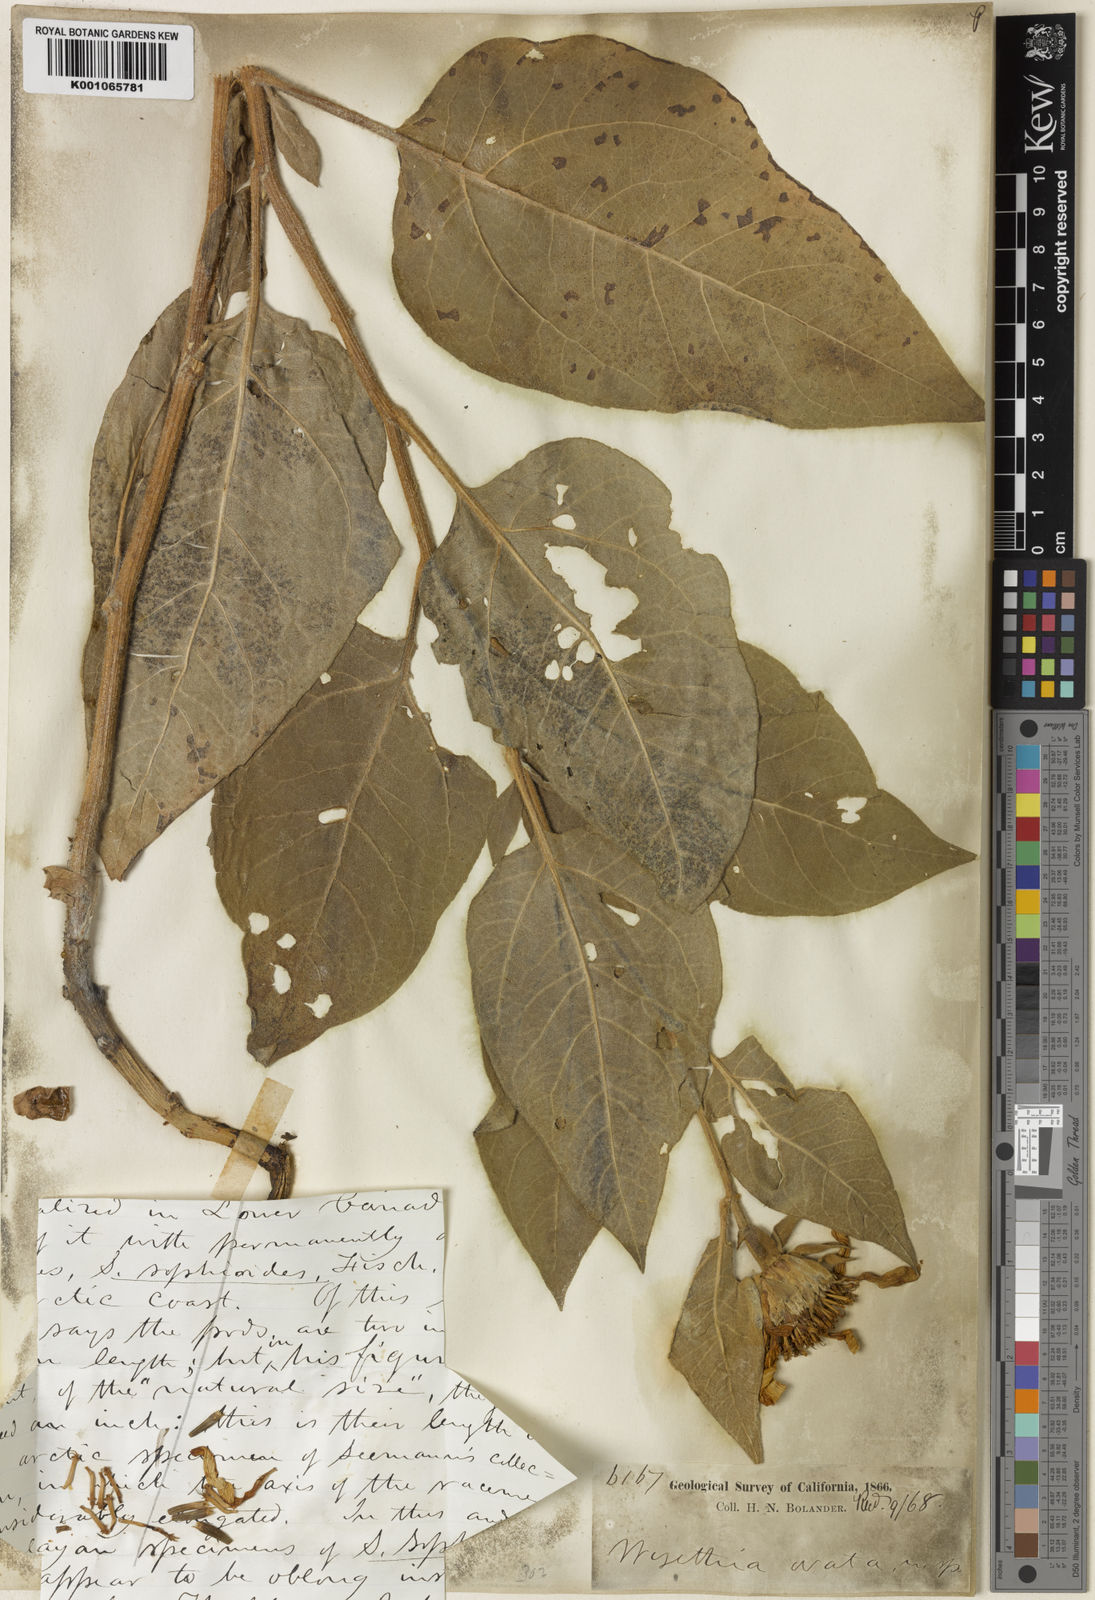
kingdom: Plantae
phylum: Tracheophyta
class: Magnoliopsida
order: Asterales
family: Asteraceae
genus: Wyethia
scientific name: Wyethia ovata
